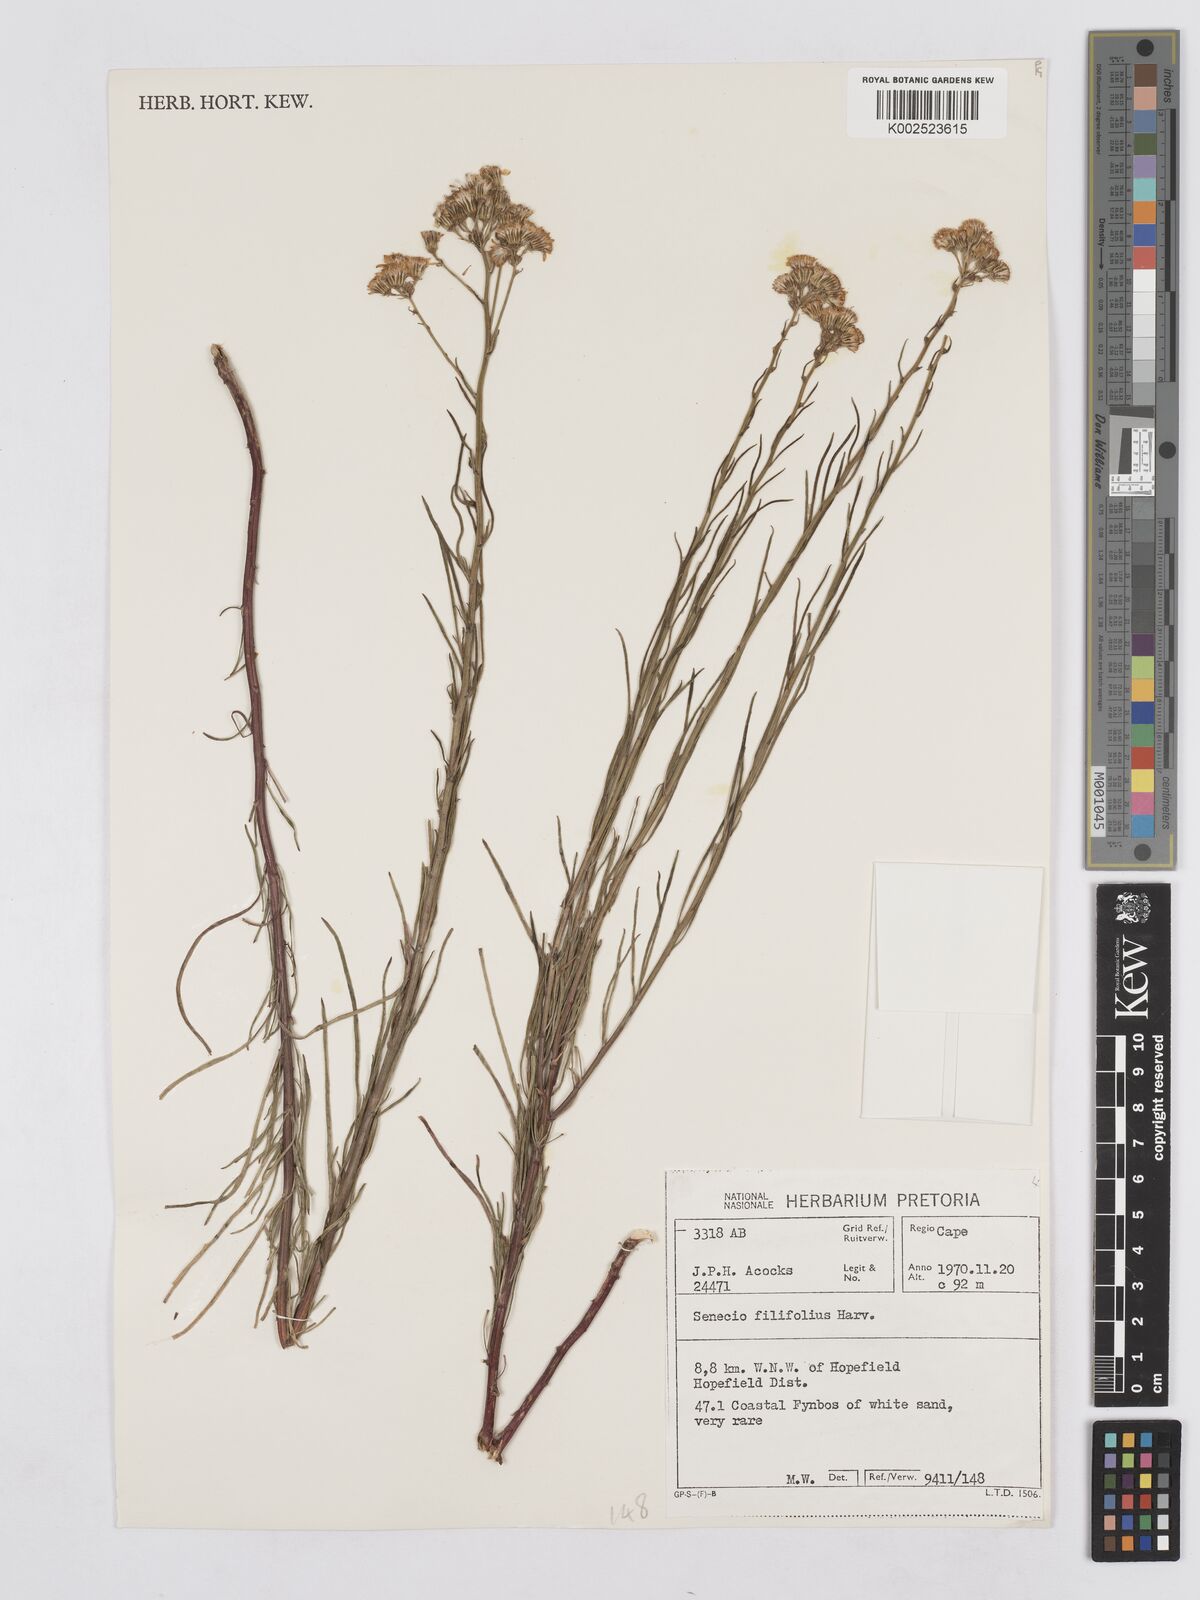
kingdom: Plantae
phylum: Tracheophyta
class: Magnoliopsida
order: Asterales
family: Asteraceae
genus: Senecio
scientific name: Senecio
